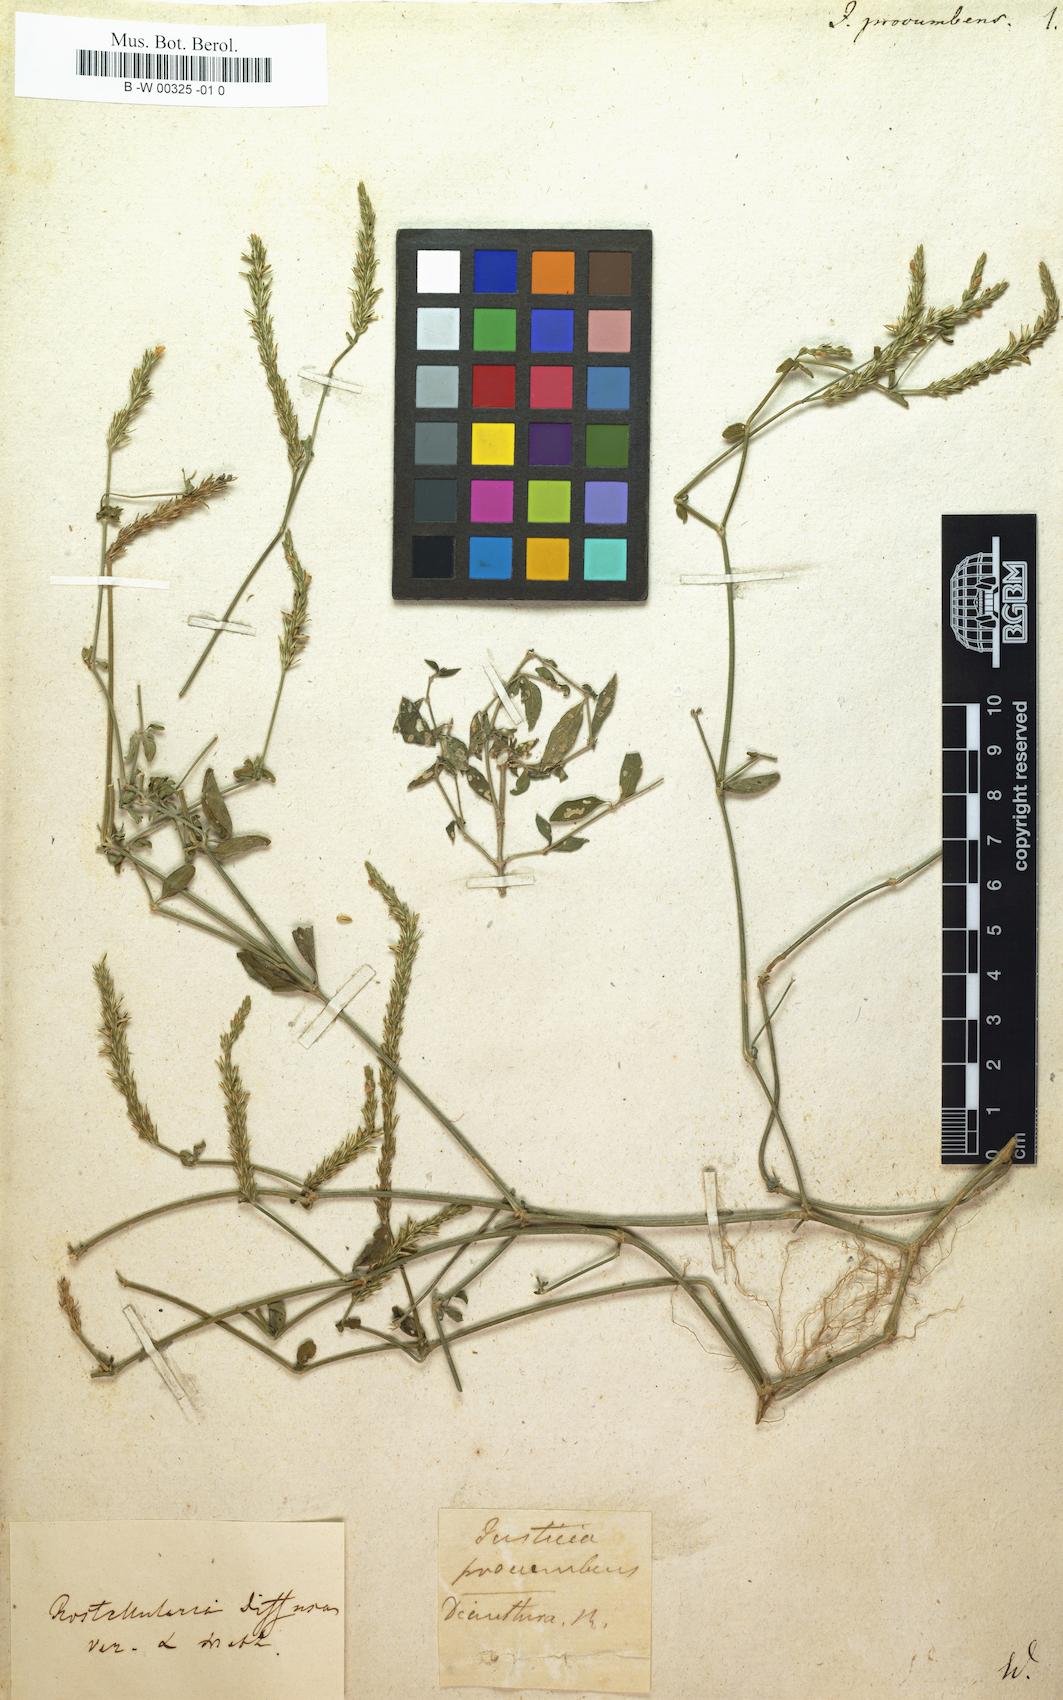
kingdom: Plantae
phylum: Tracheophyta
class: Magnoliopsida
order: Lamiales
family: Acanthaceae
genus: Rostellularia
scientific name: Rostellularia procumbens
